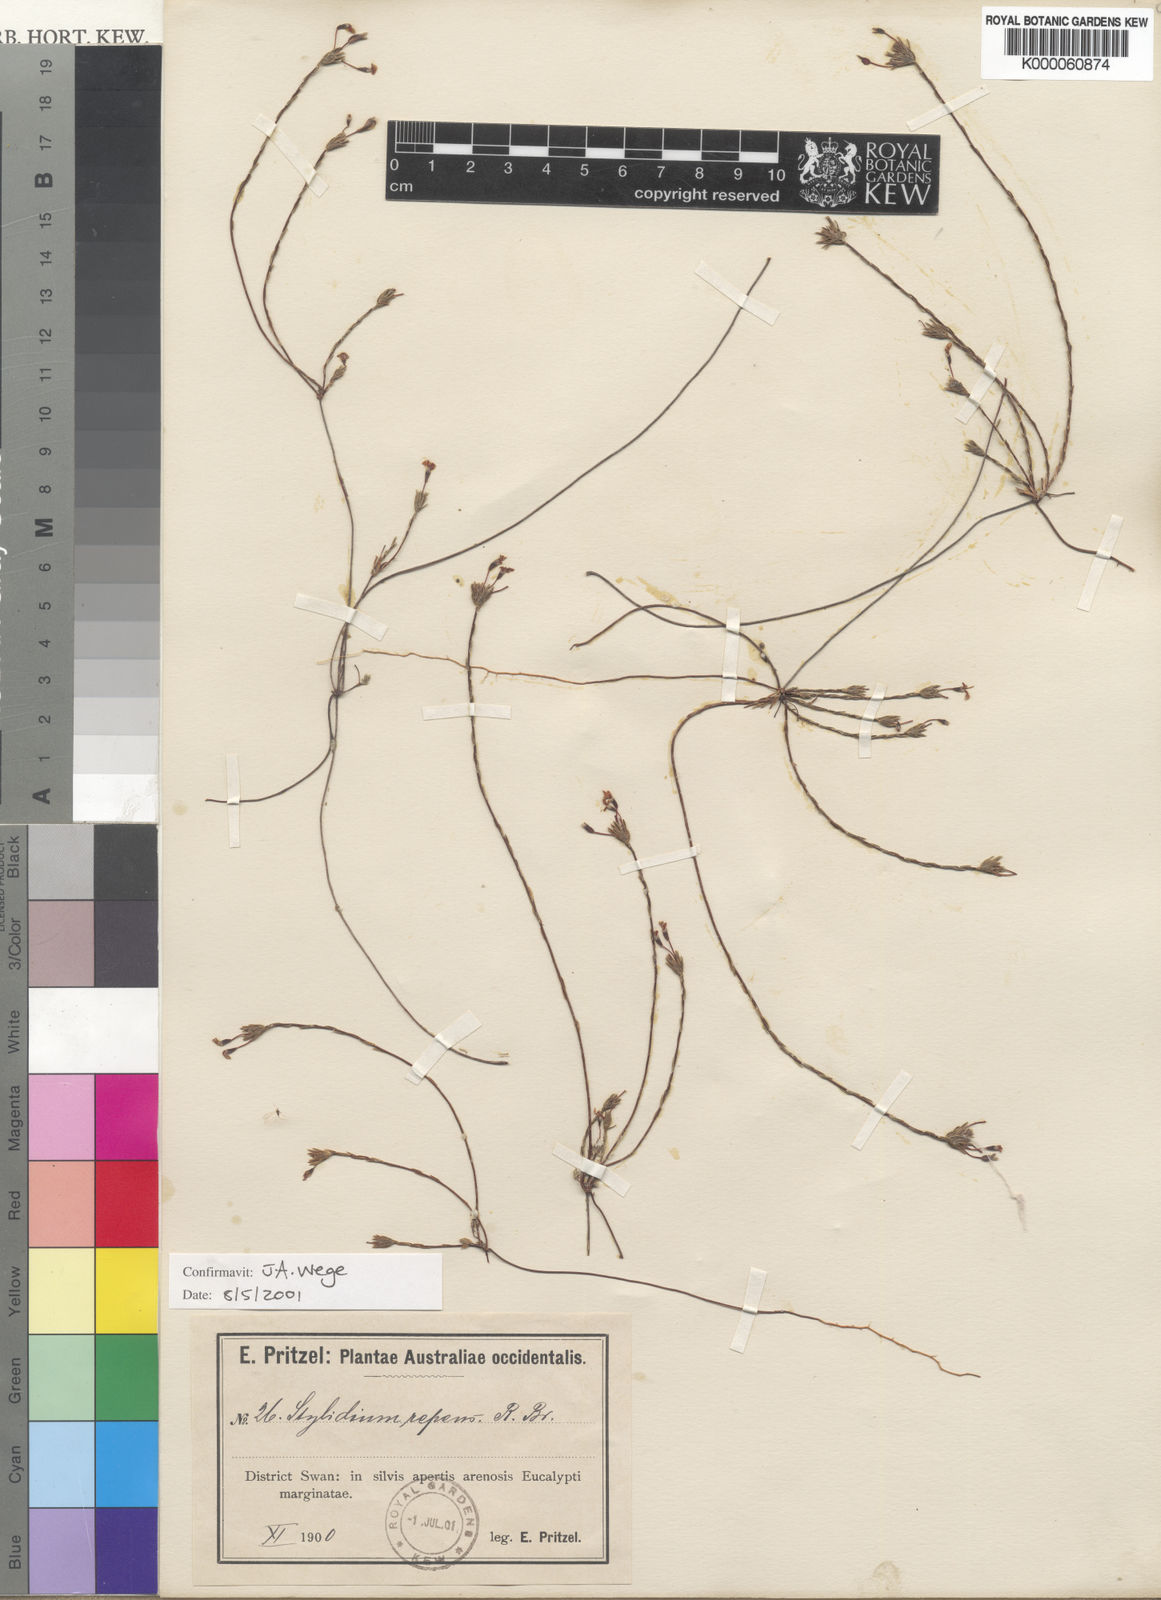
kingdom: Plantae
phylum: Tracheophyta
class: Magnoliopsida
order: Asterales
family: Stylidiaceae
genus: Stylidium
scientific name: Stylidium repens
